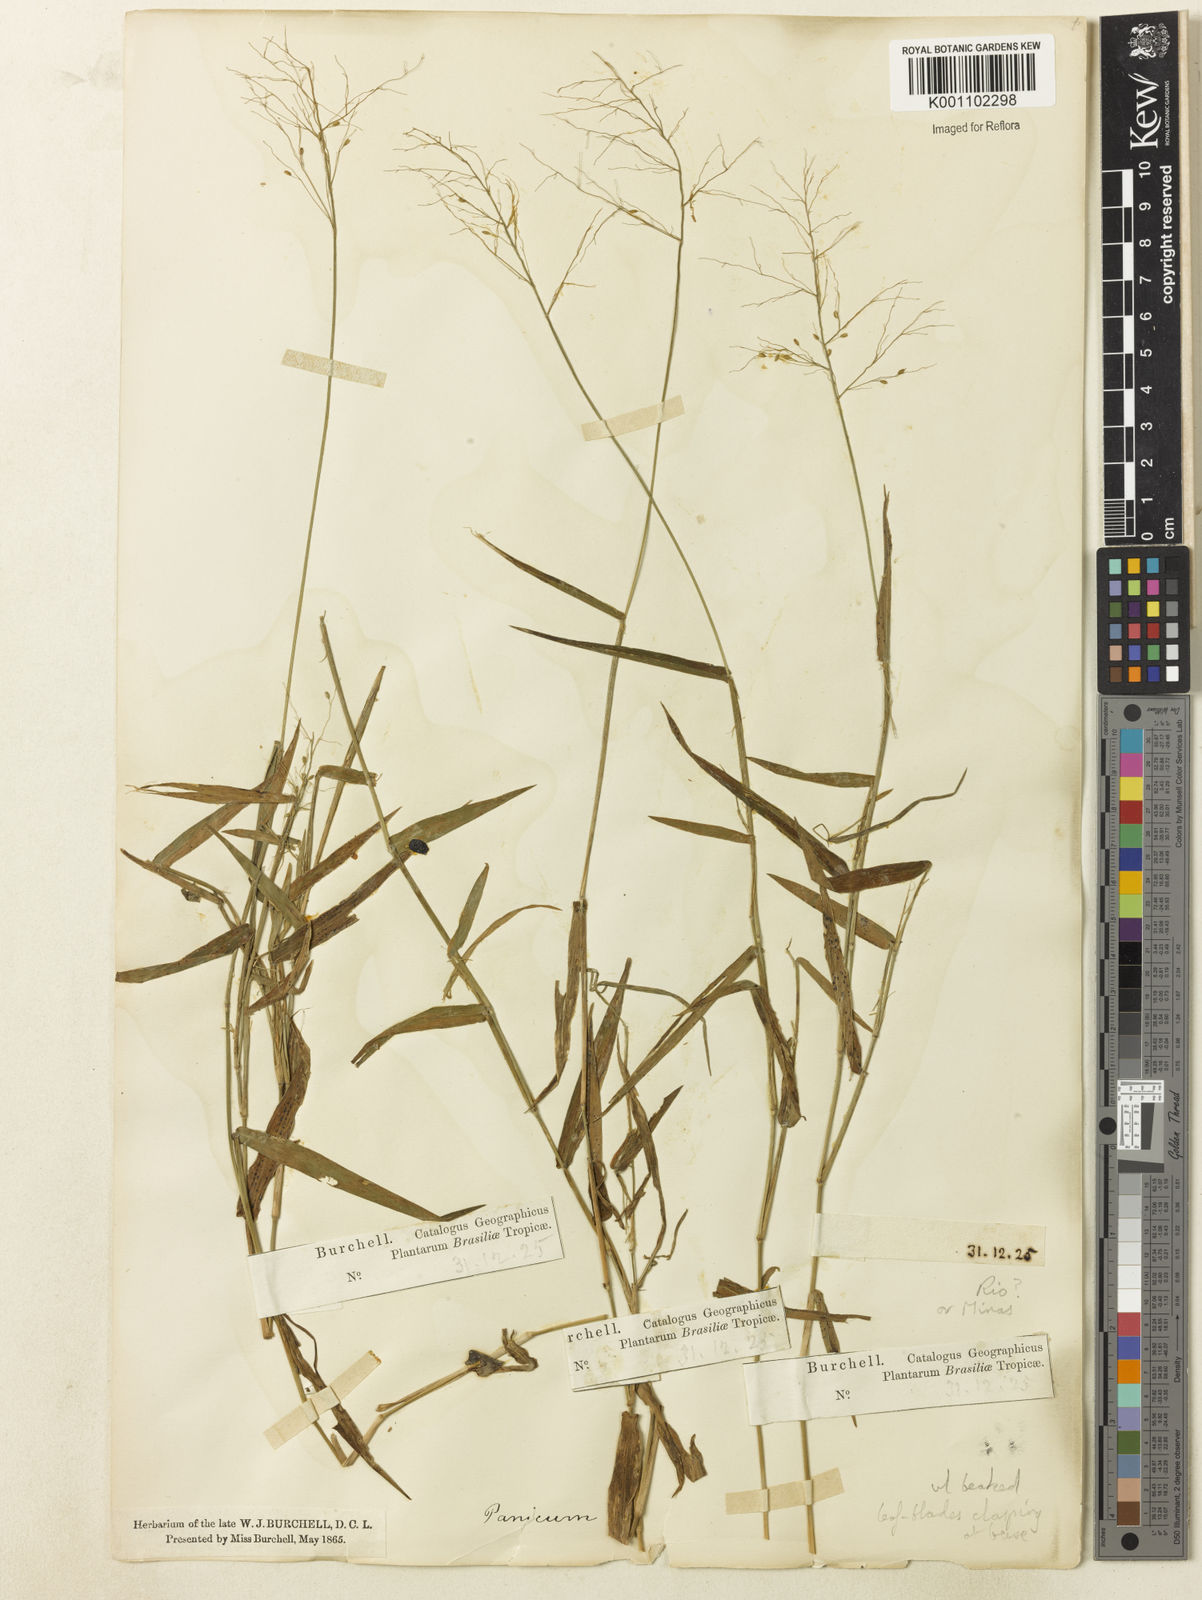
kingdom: Plantae
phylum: Tracheophyta
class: Liliopsida
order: Poales
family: Poaceae
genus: Dichanthelium
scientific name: Dichanthelium stigmosum
